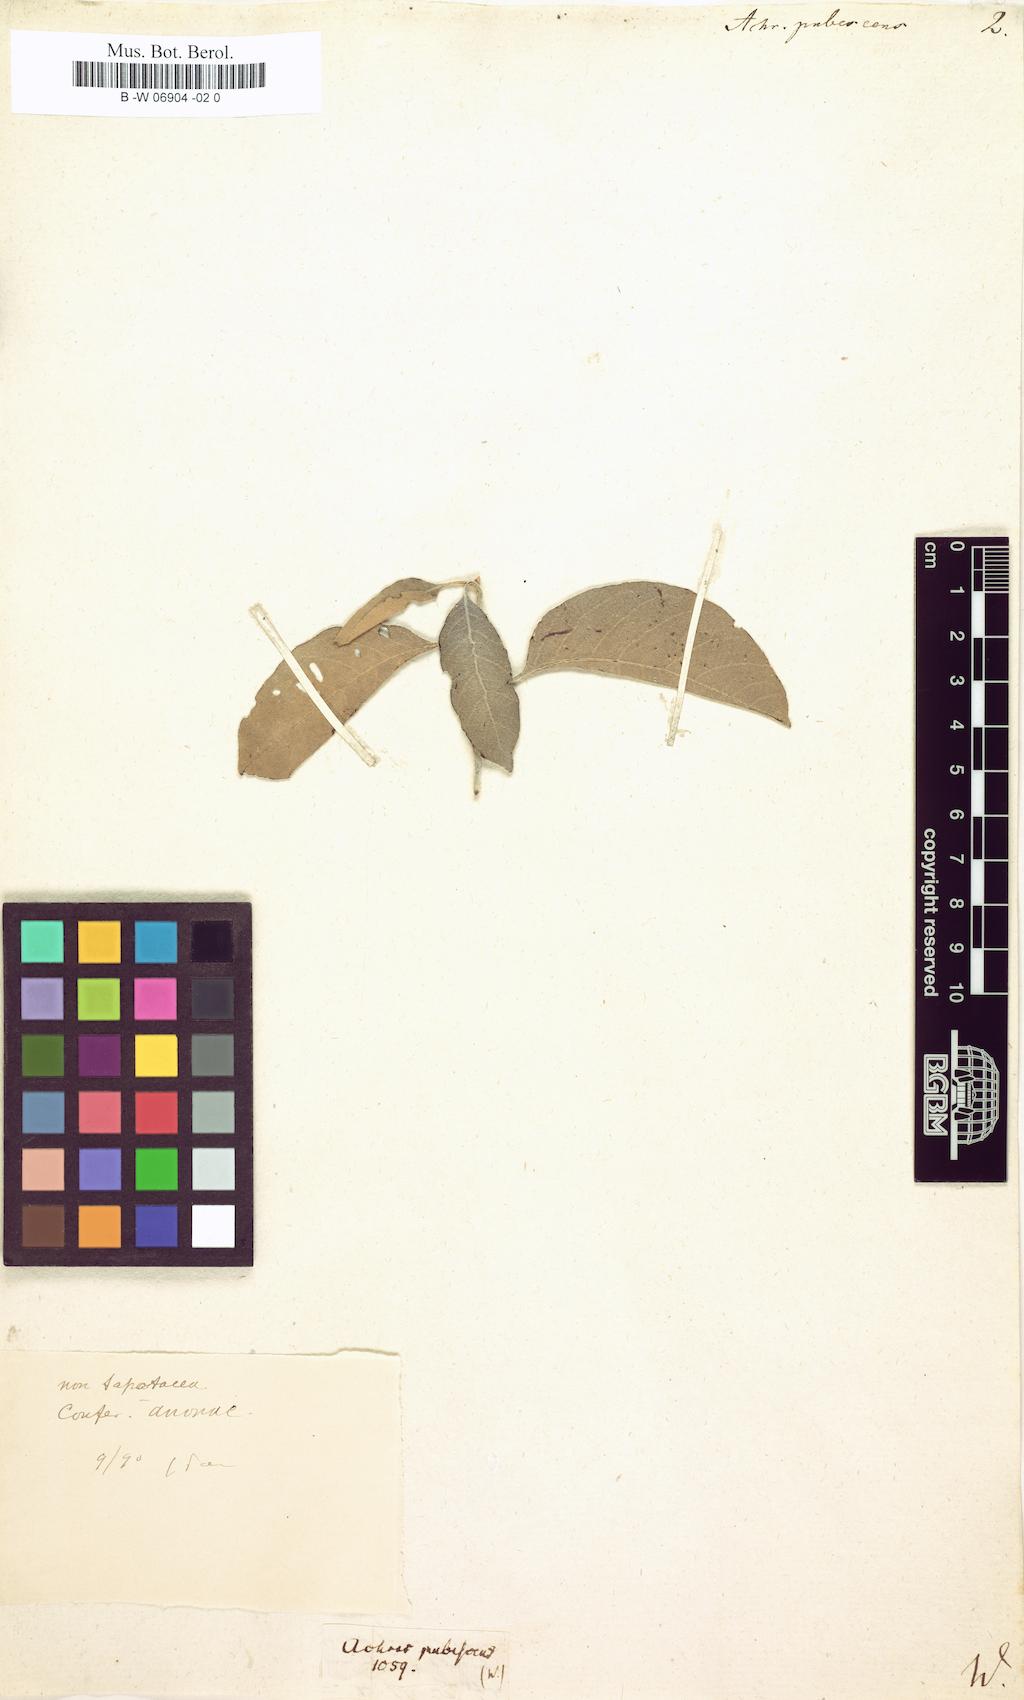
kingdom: Plantae
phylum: Tracheophyta
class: Magnoliopsida
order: Ericales
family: Sapotaceae
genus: Achras
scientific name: Achras
